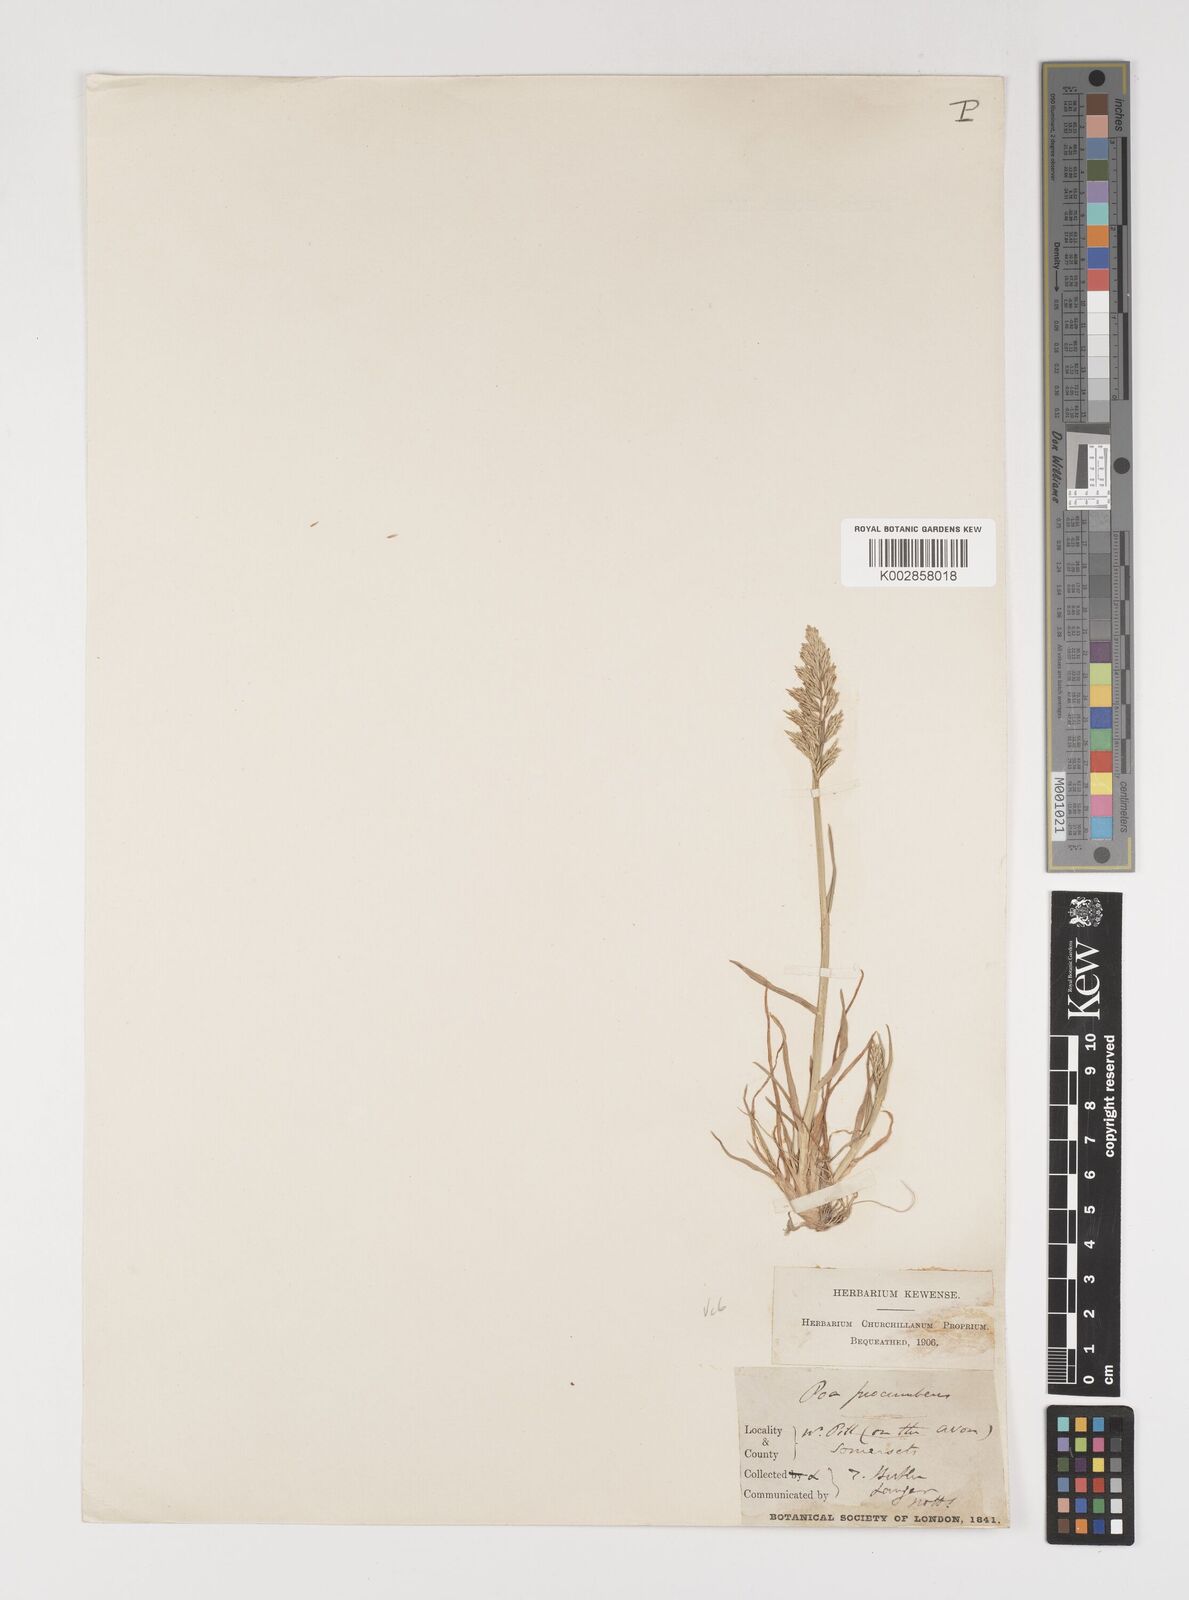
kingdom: Plantae
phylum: Tracheophyta
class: Liliopsida
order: Poales
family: Poaceae
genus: Puccinellia
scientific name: Puccinellia rupestris
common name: Stiff saltmarsh-grass
